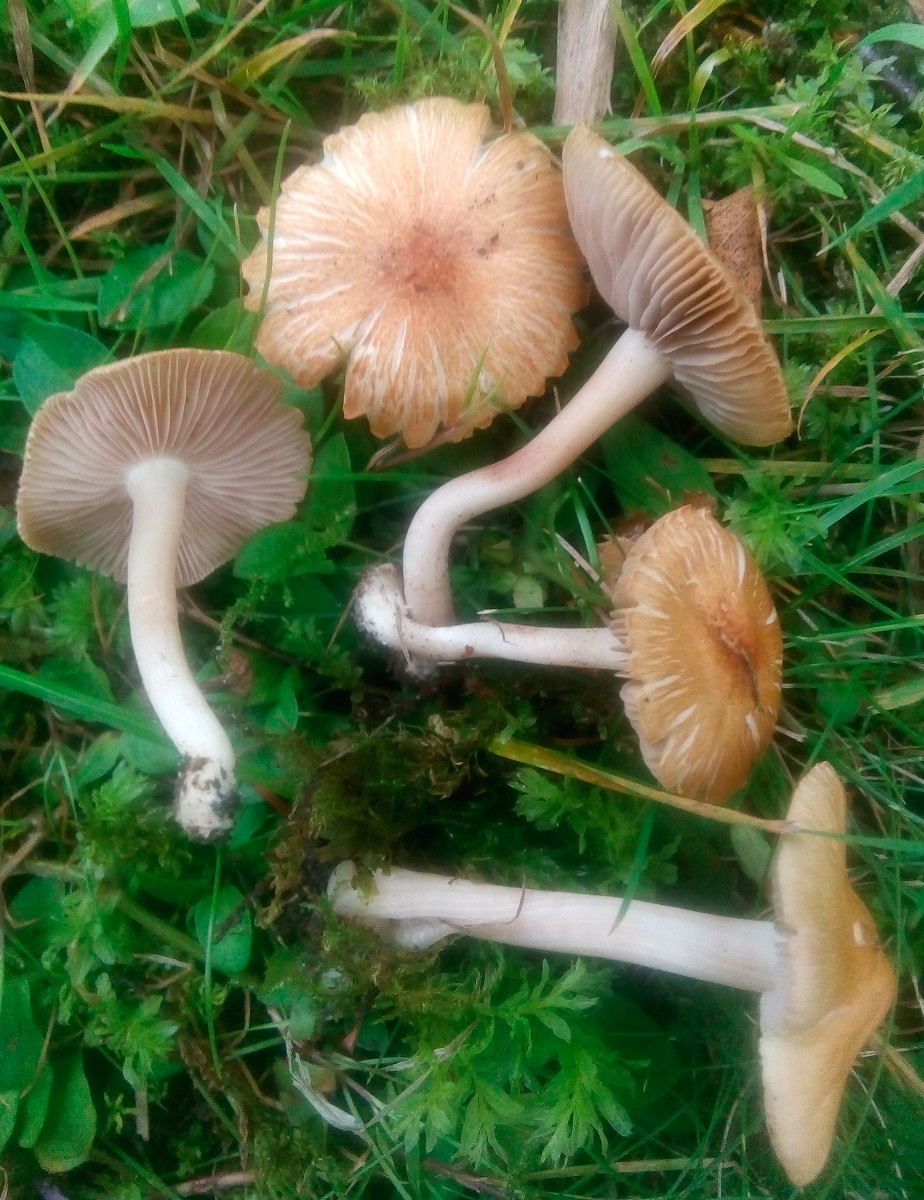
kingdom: Fungi
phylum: Basidiomycota
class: Agaricomycetes
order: Agaricales
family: Inocybaceae
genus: Inocybe
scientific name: Inocybe
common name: trævlhat
